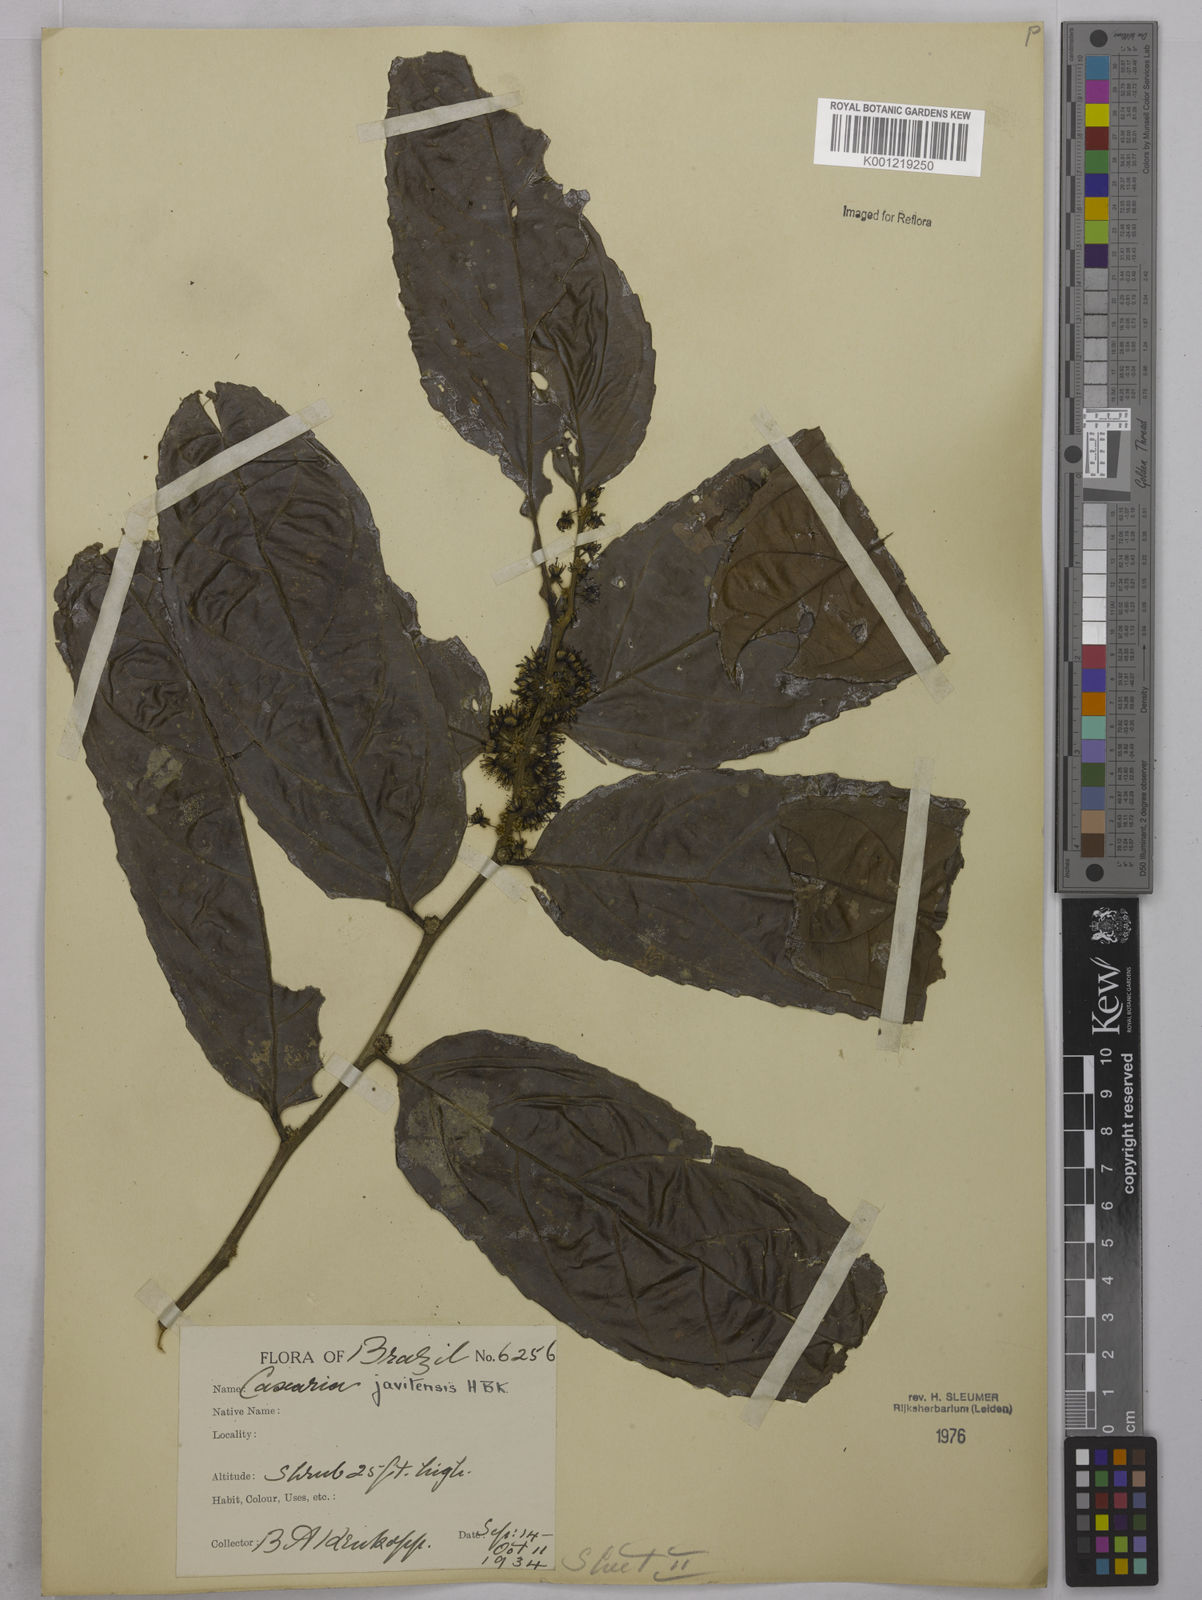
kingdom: Plantae
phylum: Tracheophyta
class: Magnoliopsida
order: Malpighiales
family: Salicaceae
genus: Piparea
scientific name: Piparea multiflora
